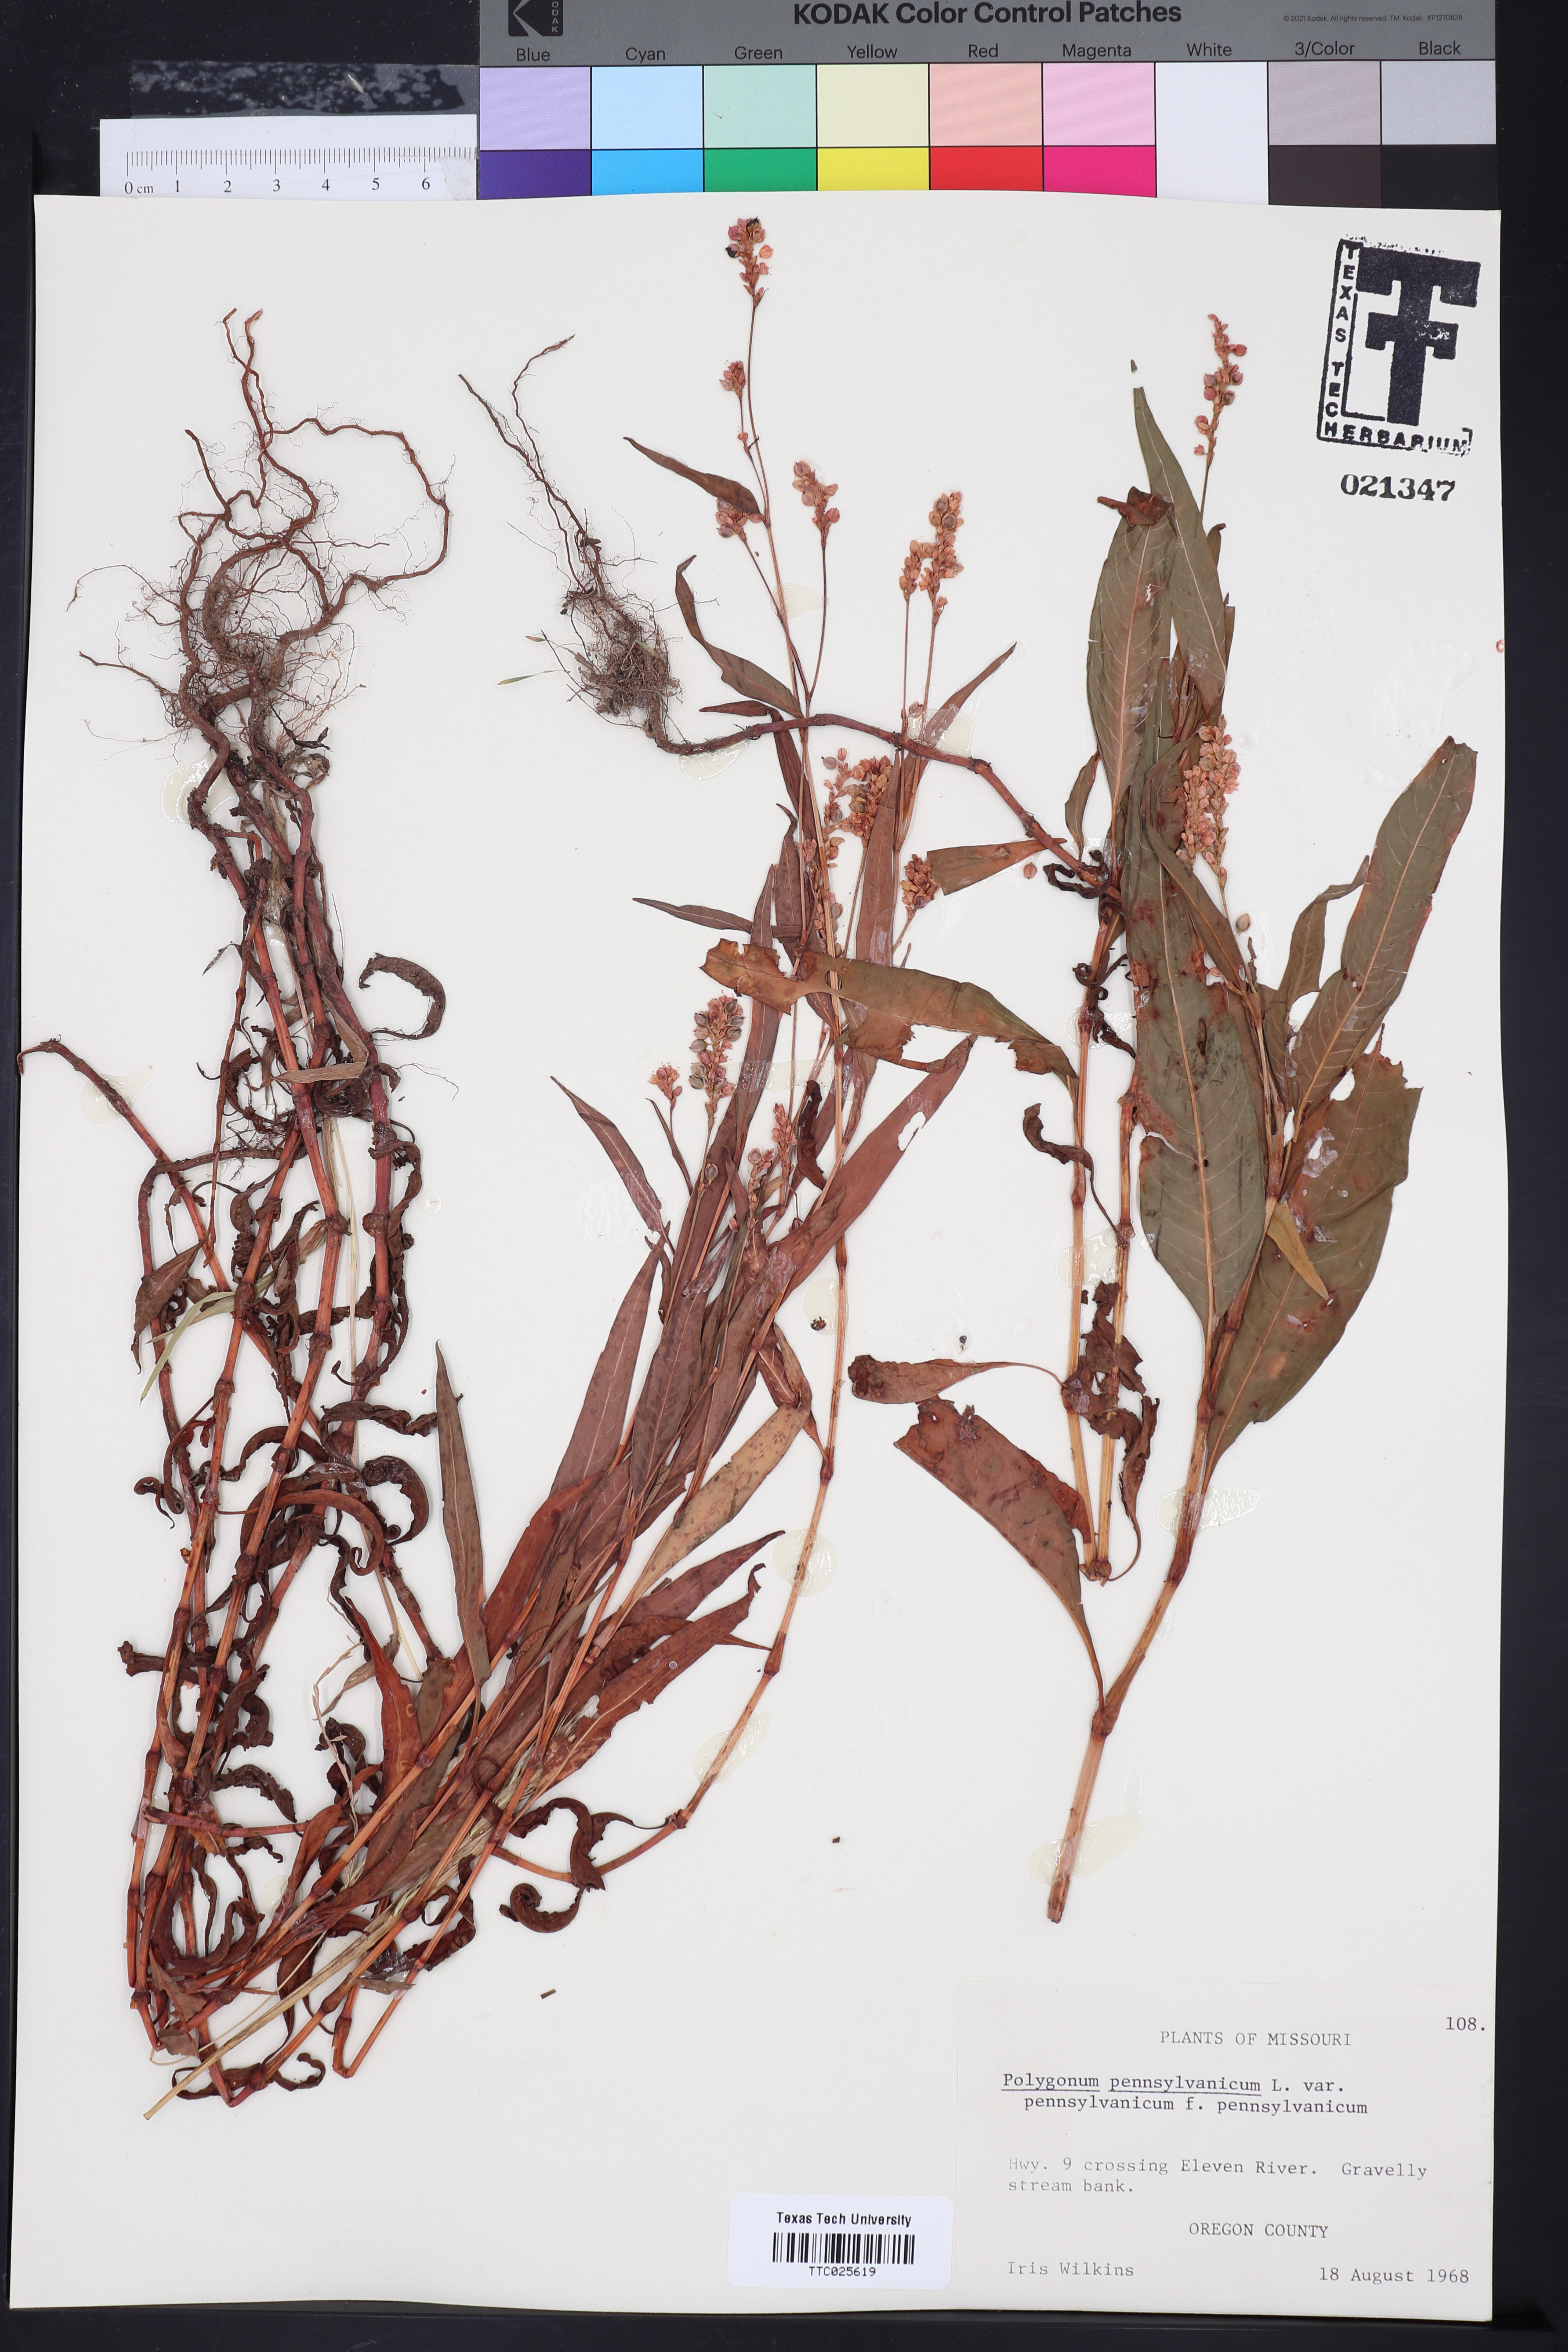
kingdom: Plantae
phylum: Tracheophyta
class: Magnoliopsida
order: Caryophyllales
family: Polygonaceae
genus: Persicaria
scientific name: Persicaria pensylvanica
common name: Pinkweed
